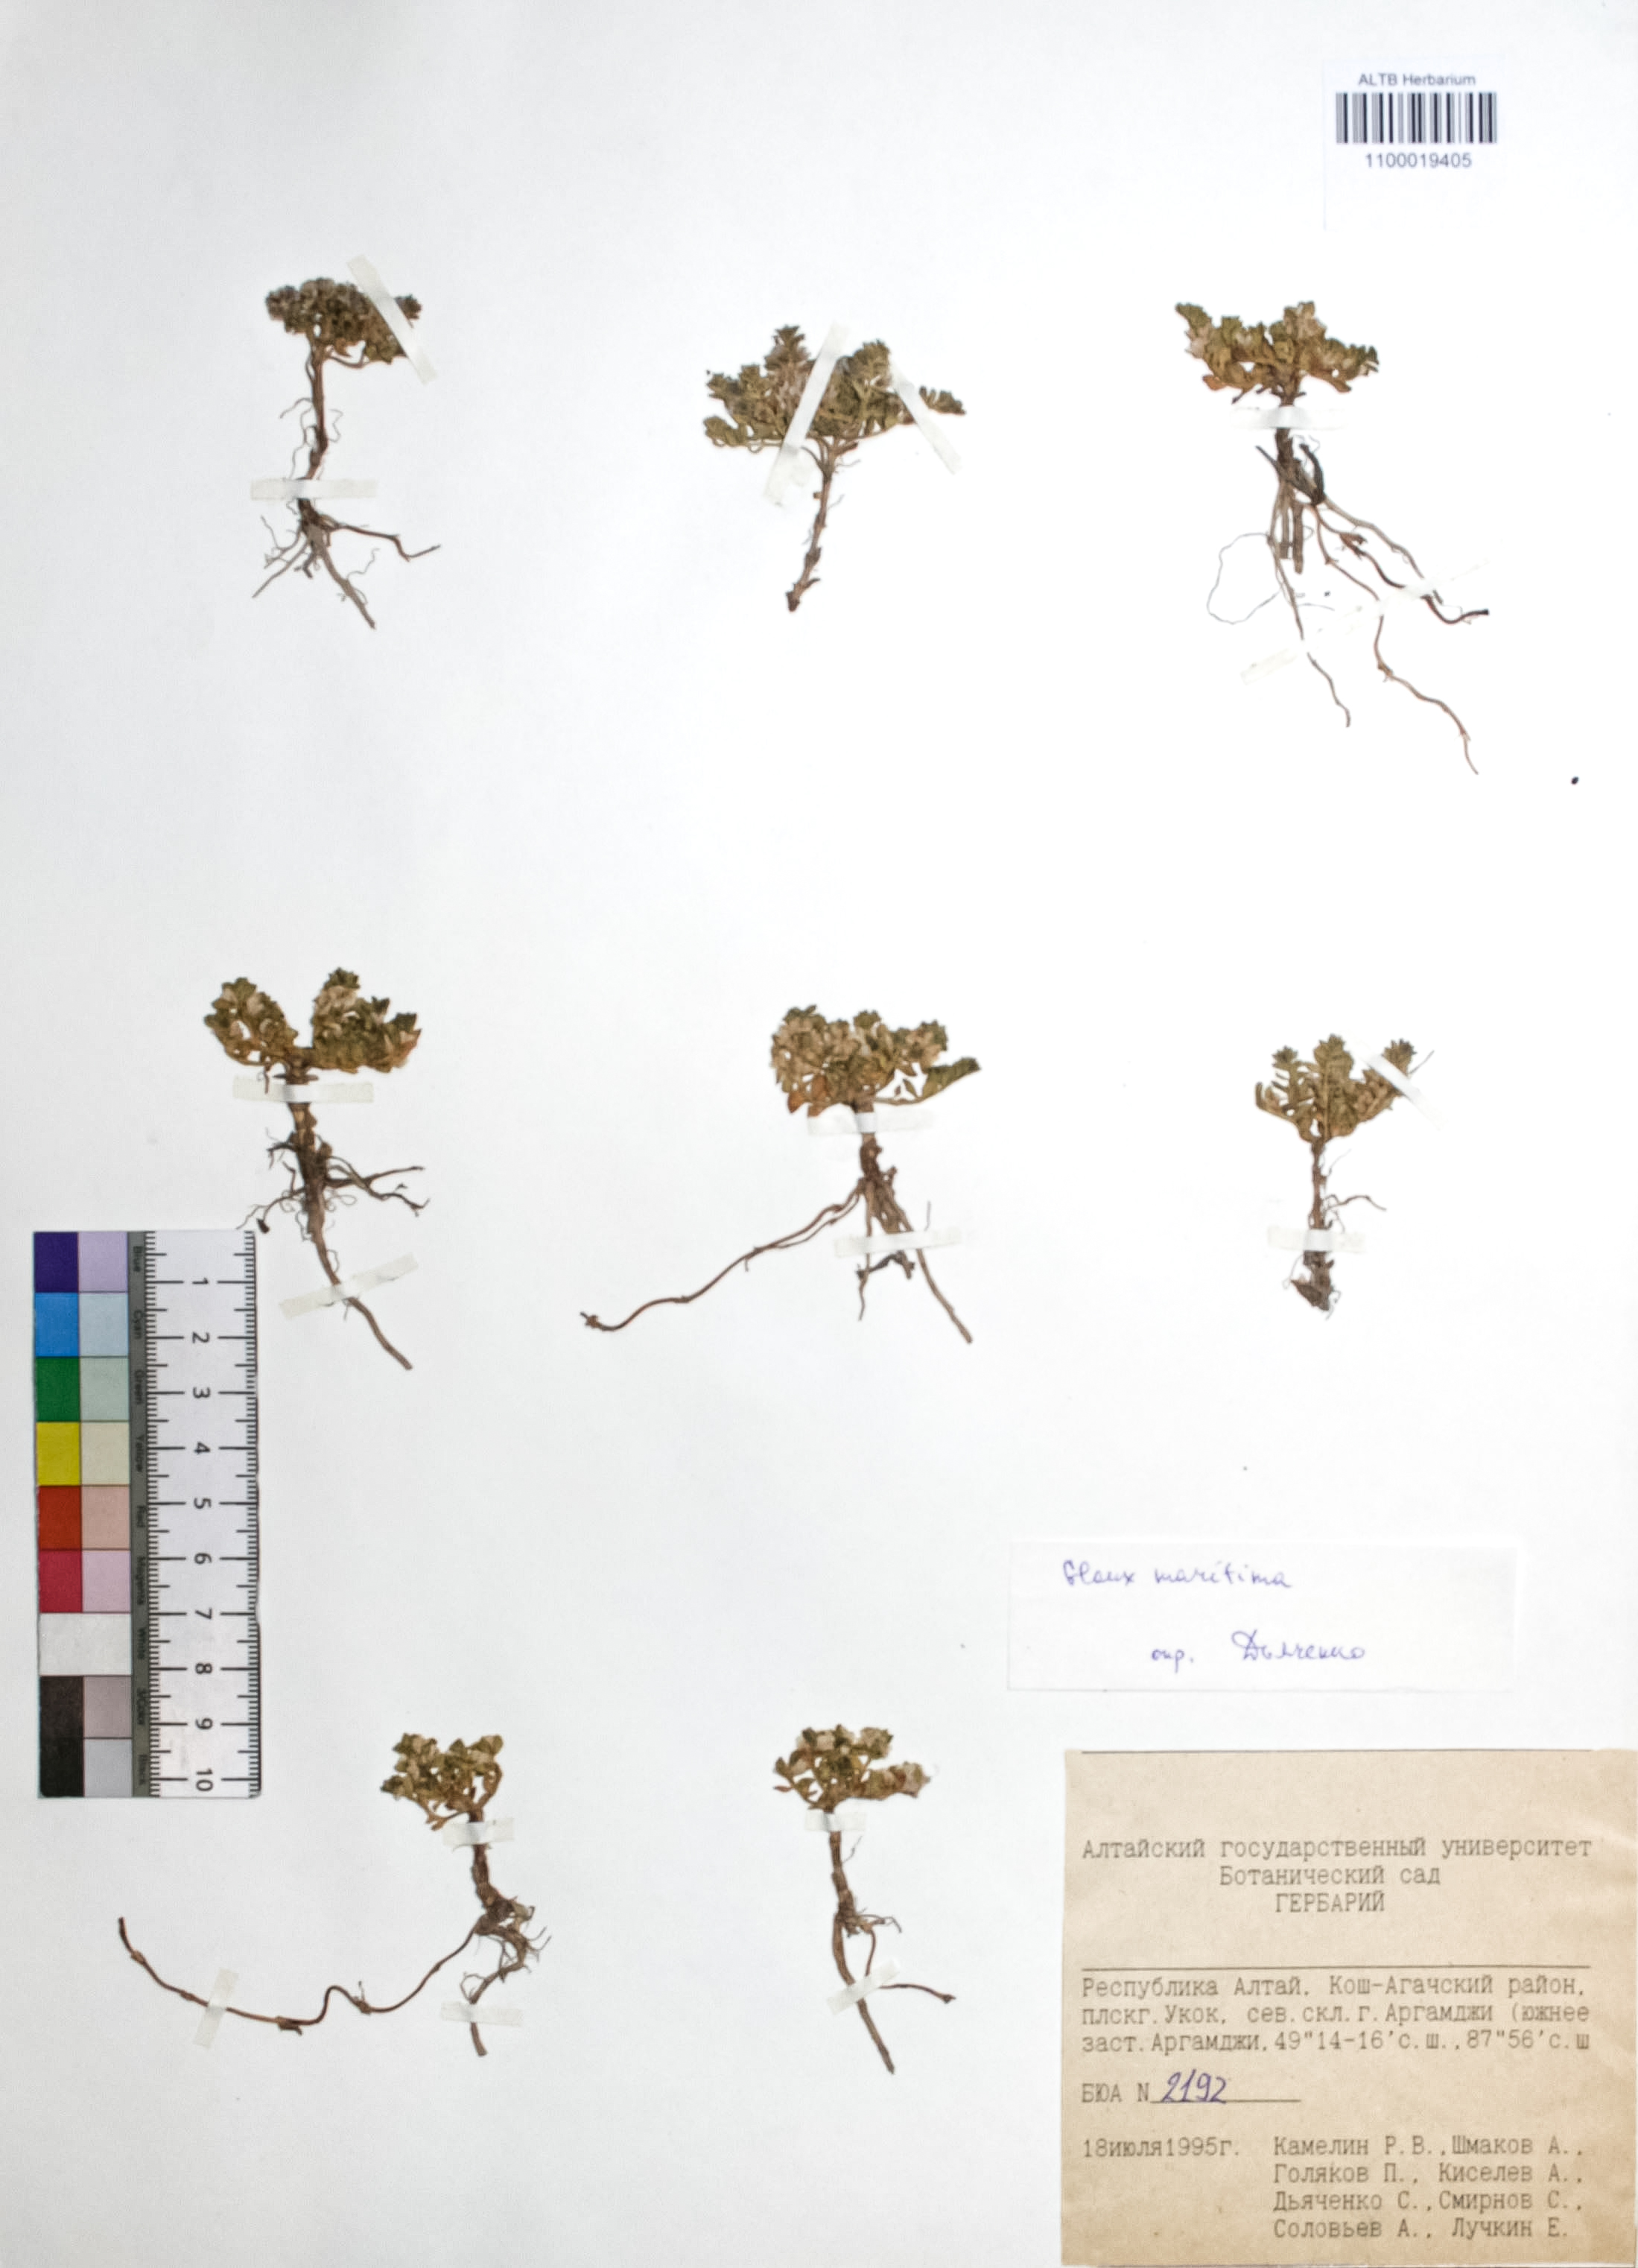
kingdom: Plantae
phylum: Tracheophyta
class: Magnoliopsida
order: Ericales
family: Primulaceae
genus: Lysimachia
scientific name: Lysimachia maritima
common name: Sea milkwort
